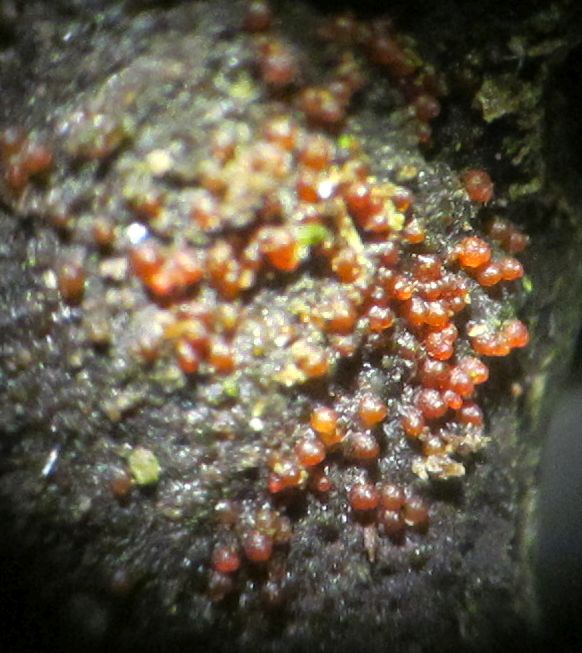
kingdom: Fungi
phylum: Ascomycota
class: Sordariomycetes
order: Hypocreales
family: Nectriaceae
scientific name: Nectriaceae
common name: cinnobersvampfamilien
